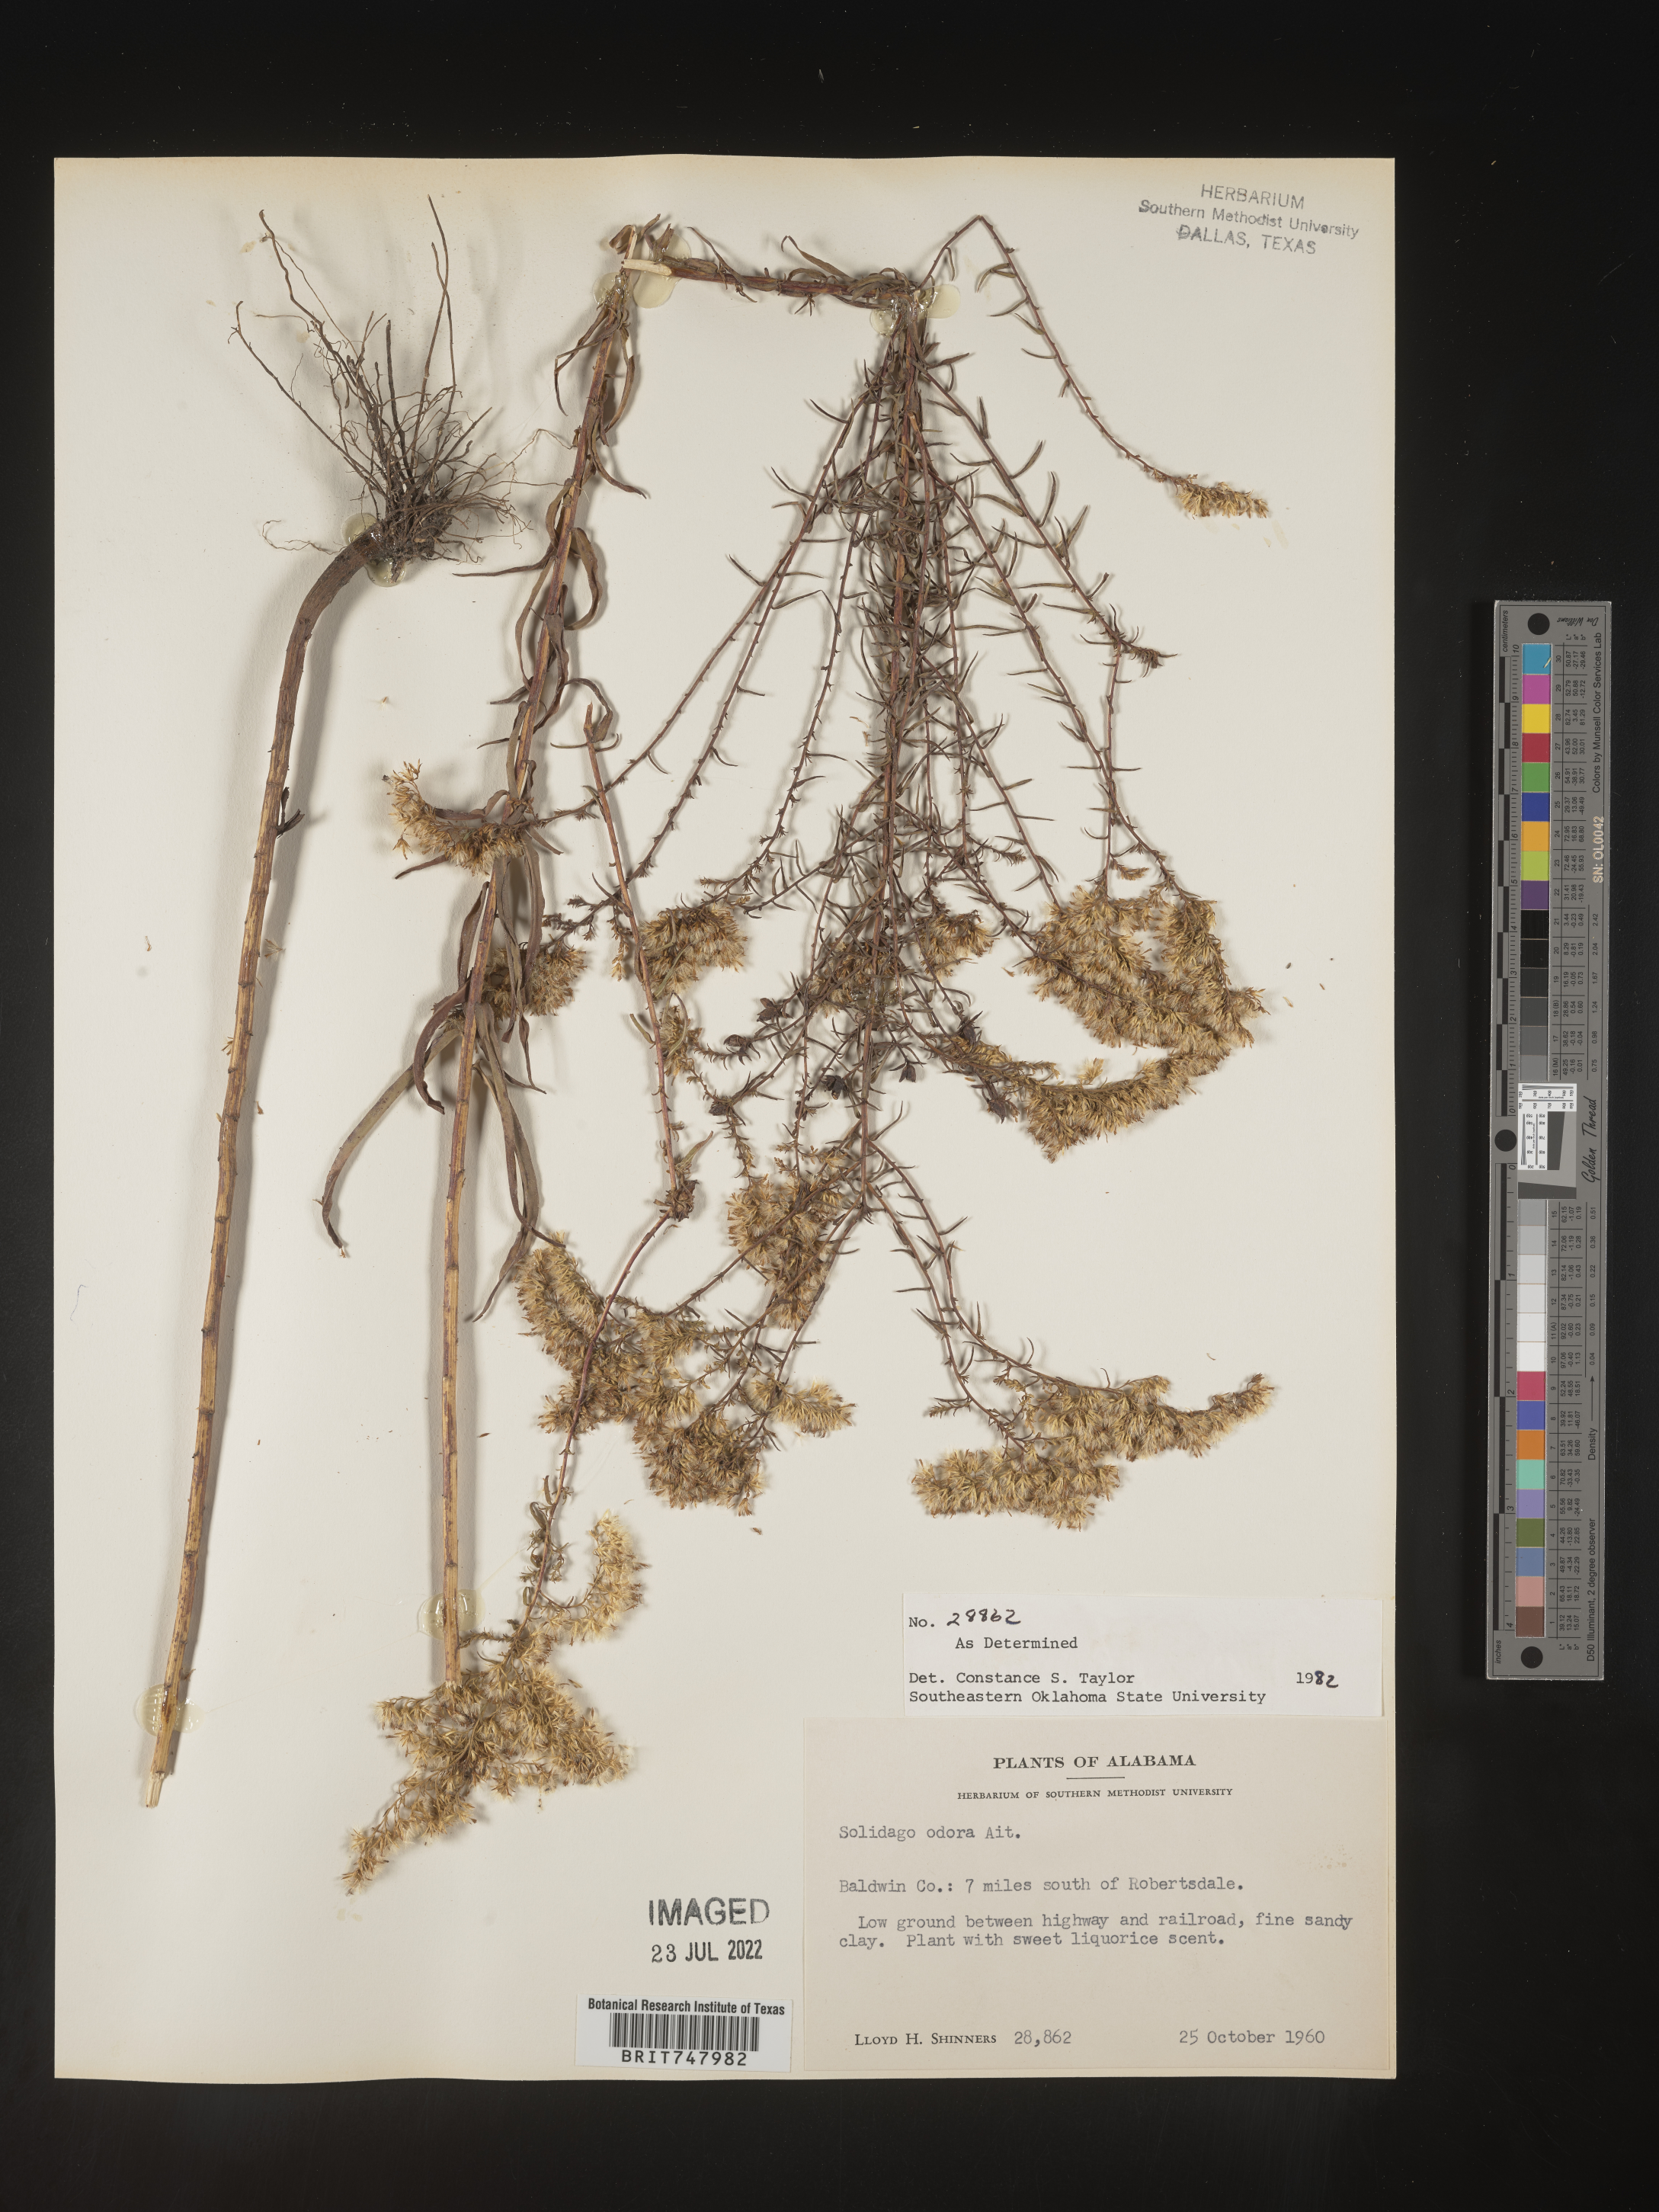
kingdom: Plantae
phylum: Tracheophyta
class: Magnoliopsida
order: Asterales
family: Asteraceae
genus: Solidago
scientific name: Solidago odora
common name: Anise-scented goldenrod
